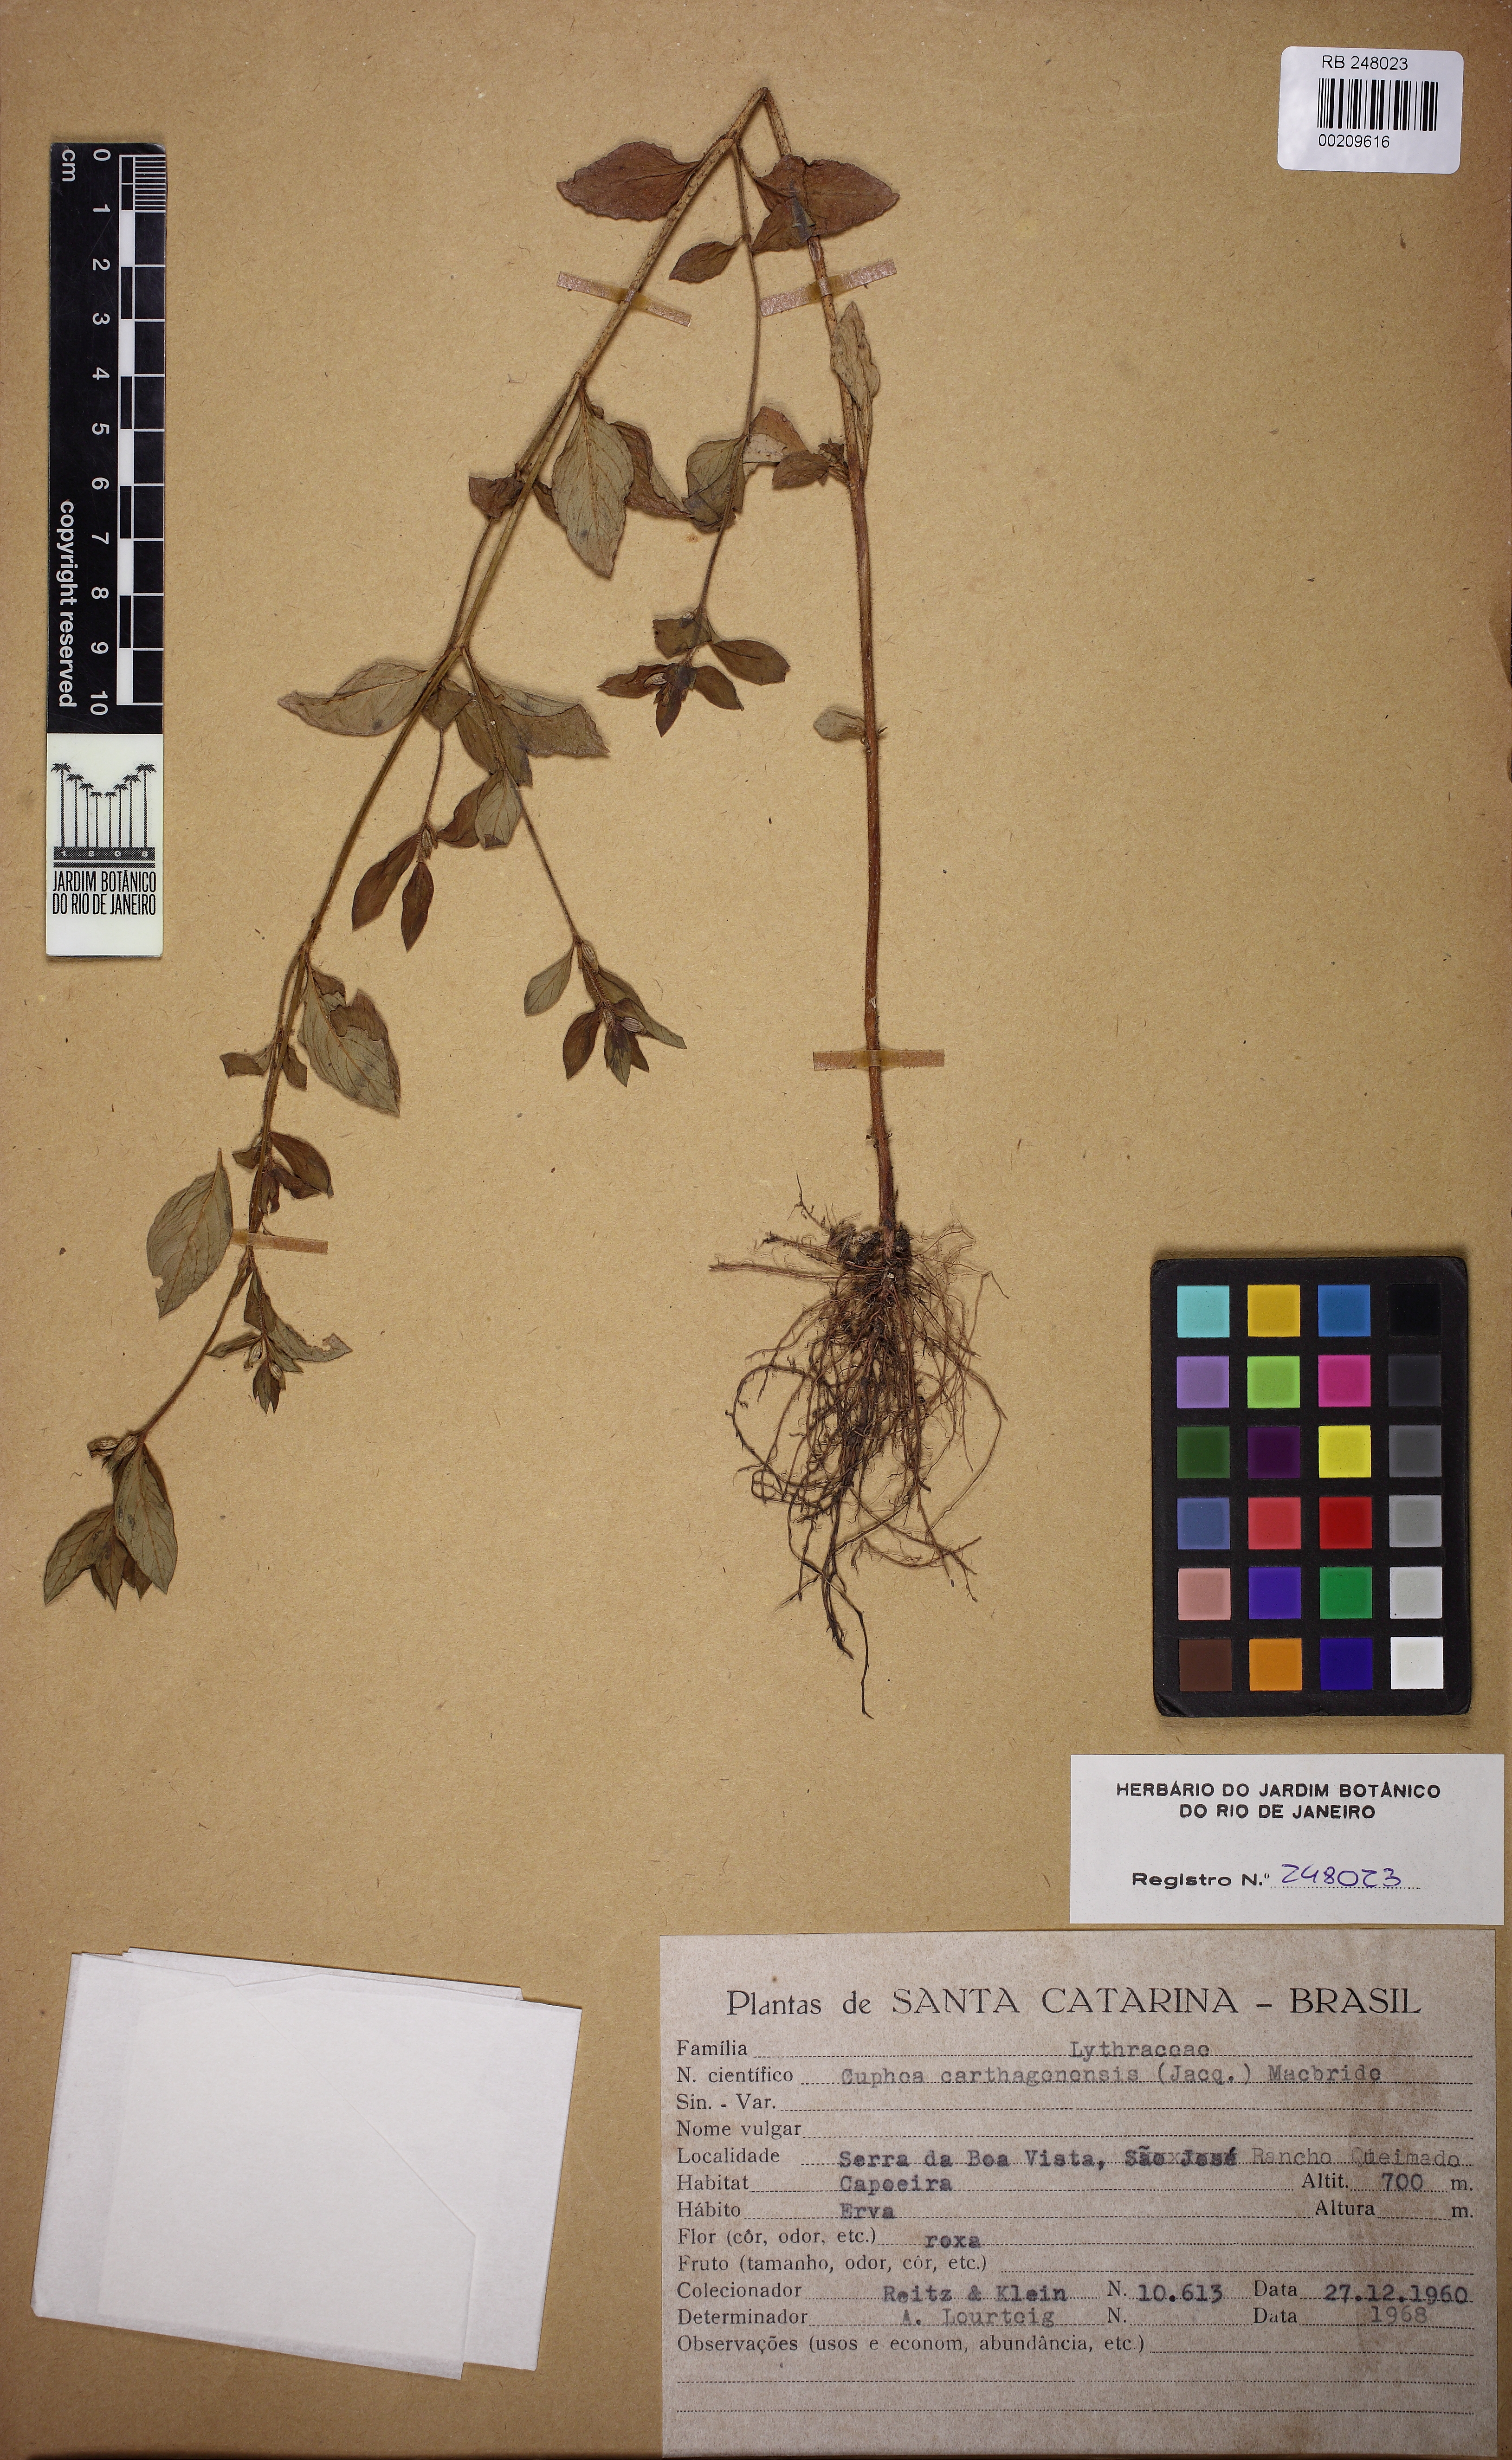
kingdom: Plantae
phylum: Tracheophyta
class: Magnoliopsida
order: Myrtales
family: Lythraceae
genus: Cuphea
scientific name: Cuphea carthagenensis
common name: Colombian waxweed
